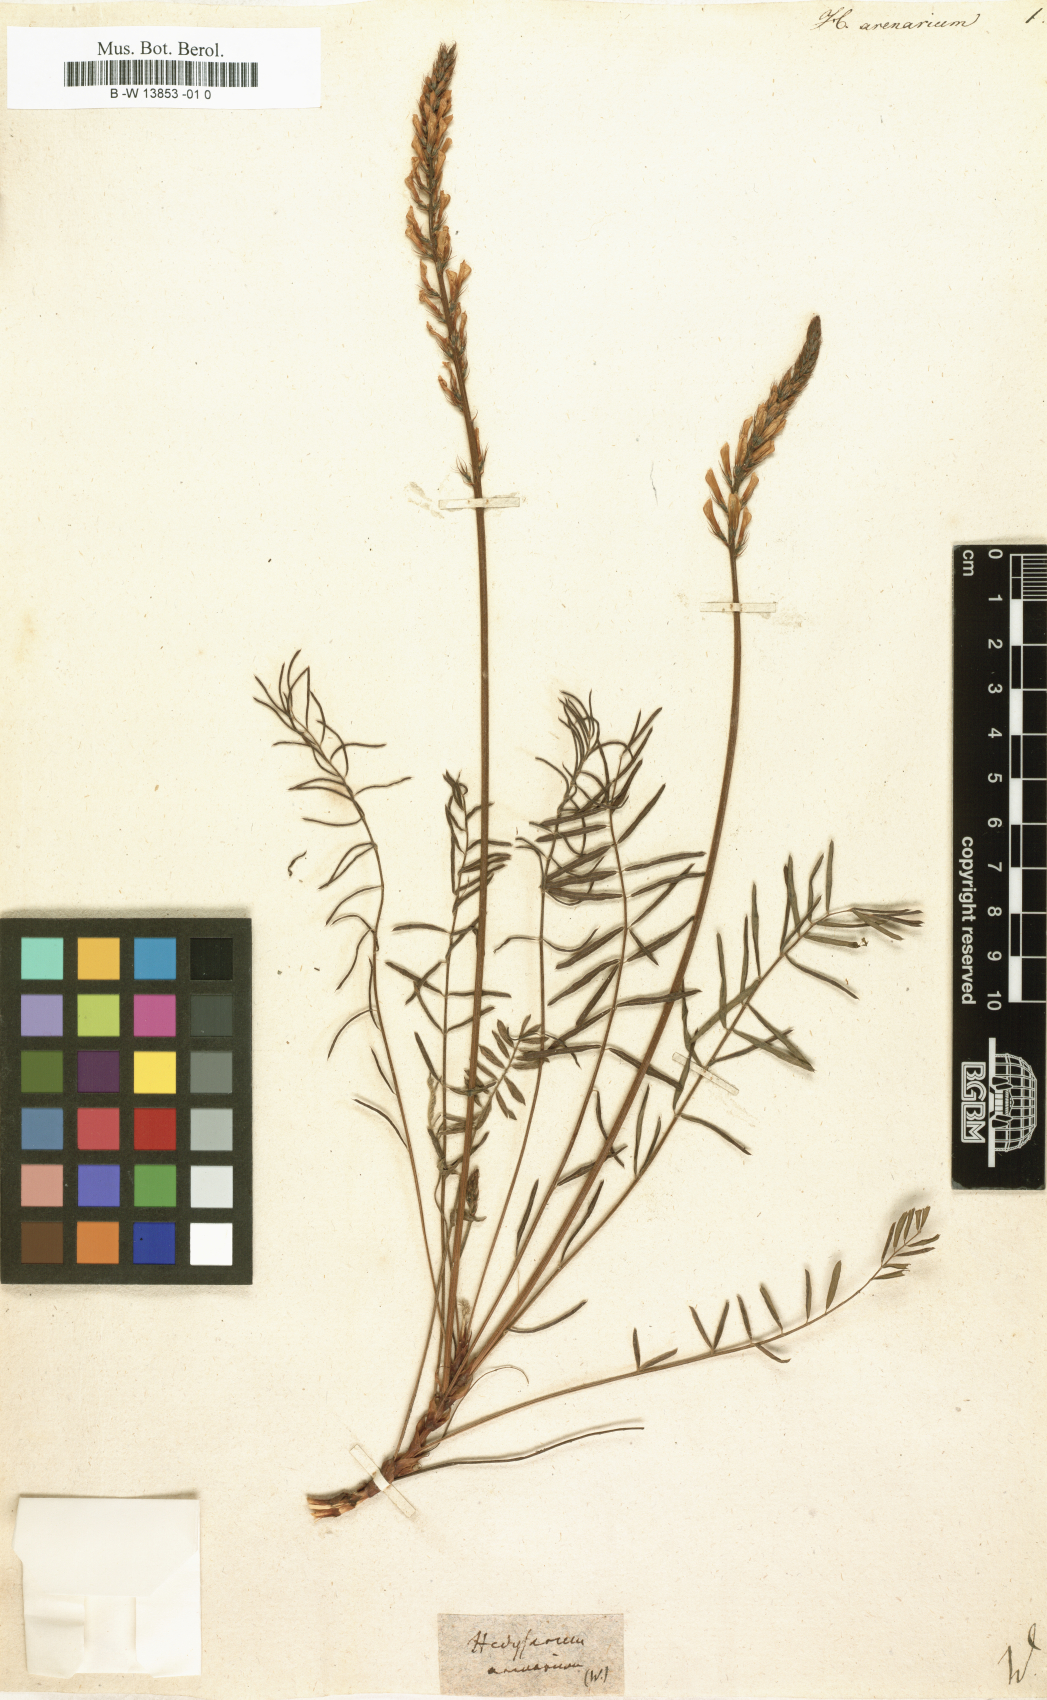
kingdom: Plantae
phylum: Tracheophyta
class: Magnoliopsida
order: Fabales
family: Fabaceae
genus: Onobrychis
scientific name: Onobrychis arenaria
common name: Sand esparcet
